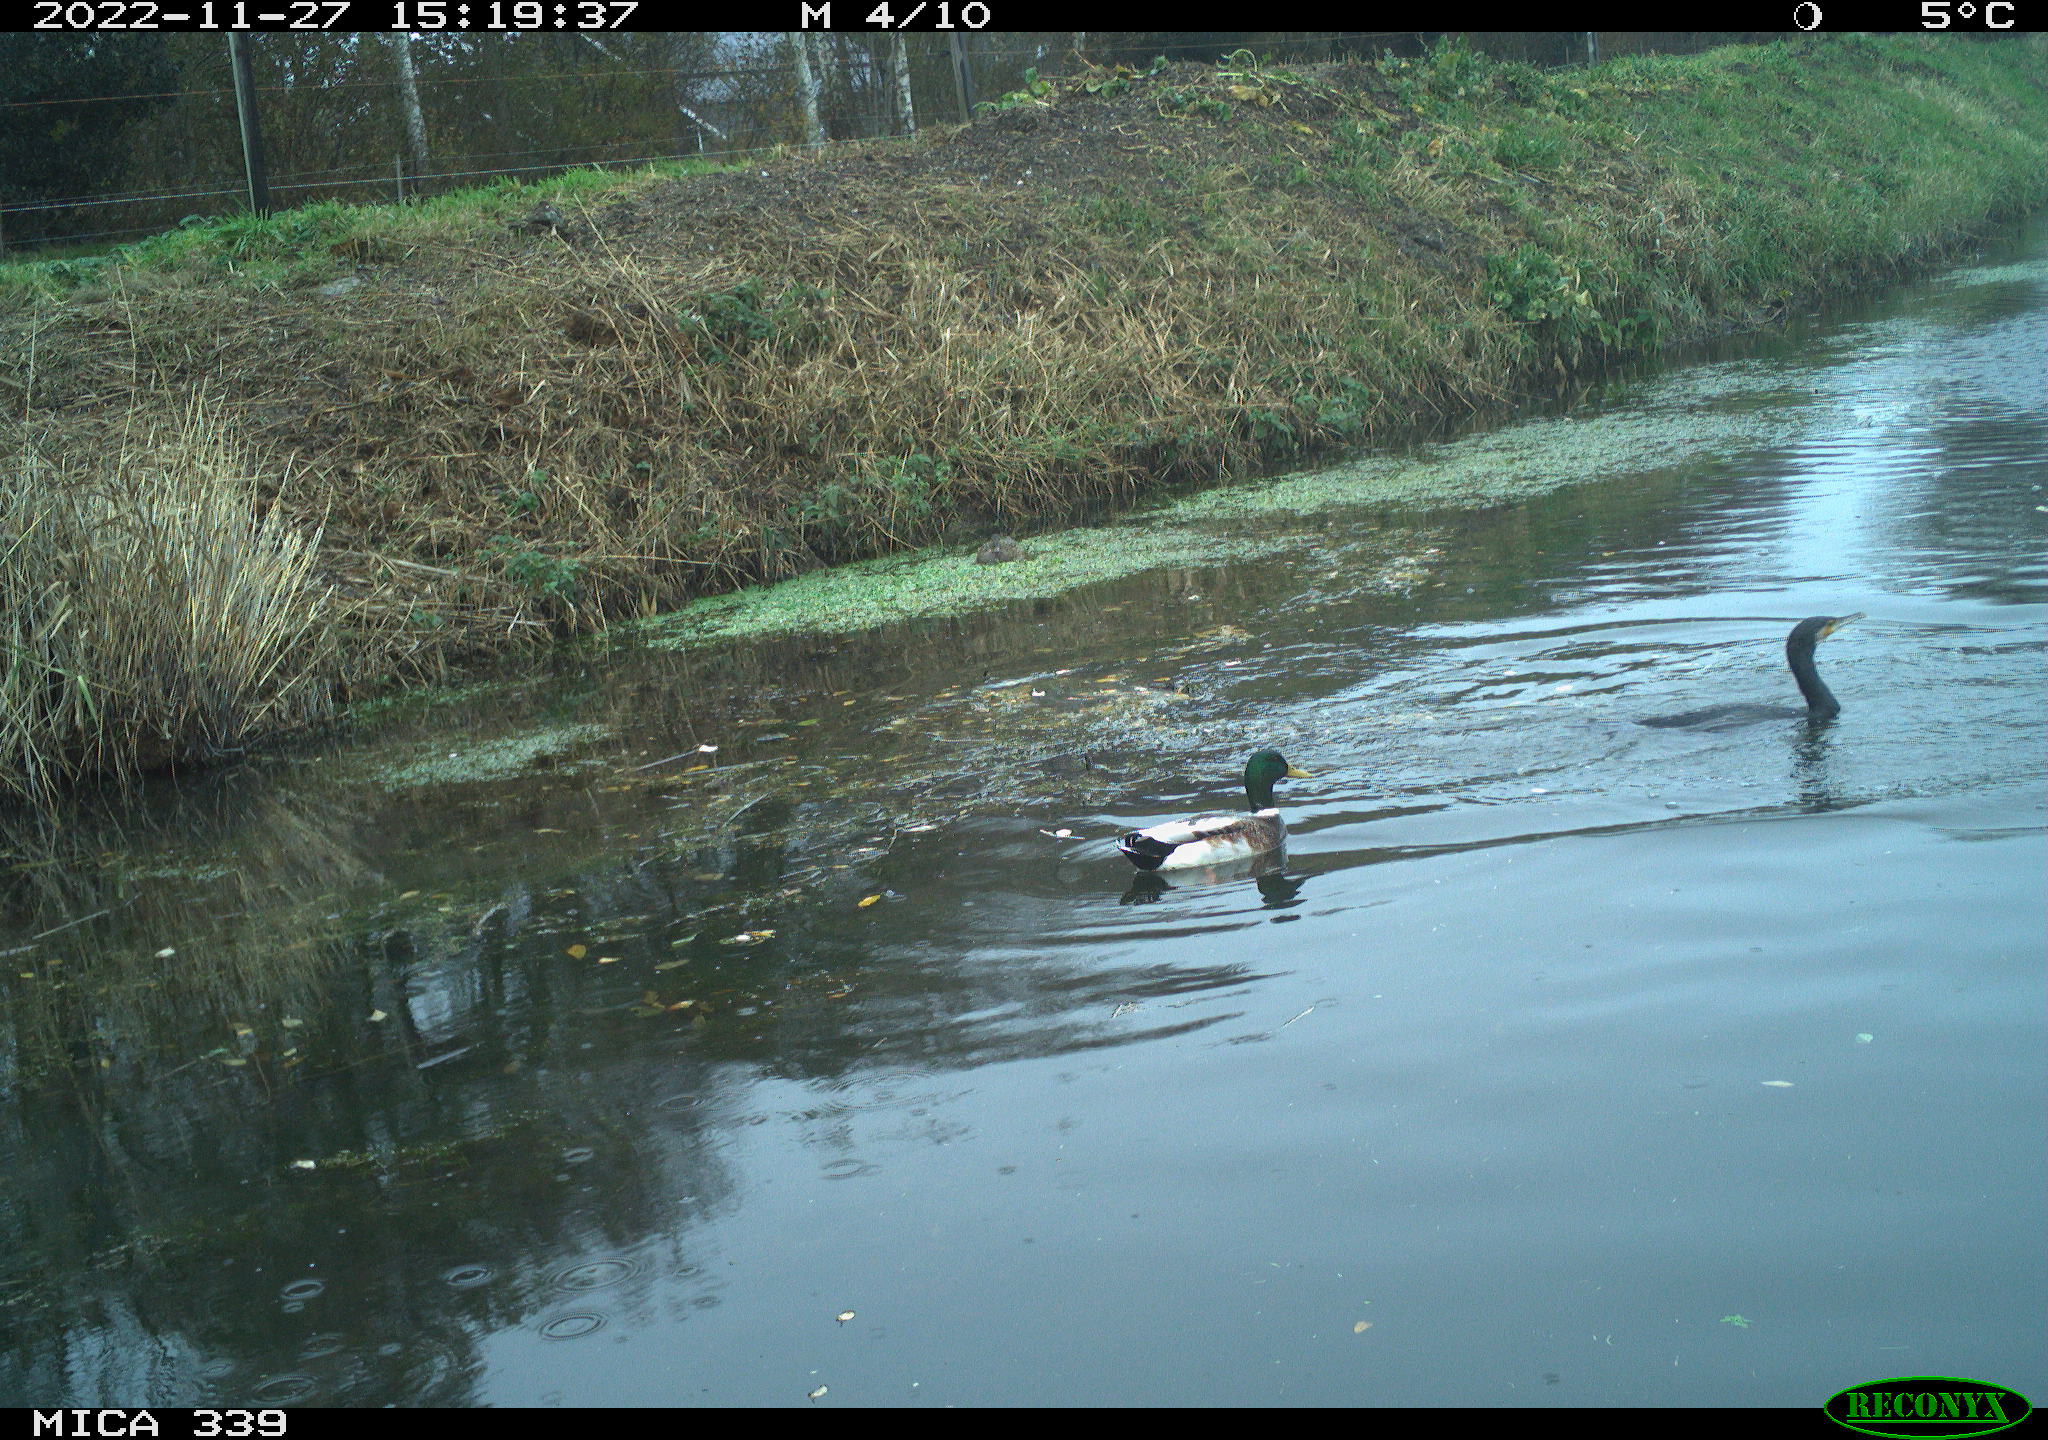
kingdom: Animalia
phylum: Chordata
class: Aves
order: Anseriformes
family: Anatidae
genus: Anas
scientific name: Anas
